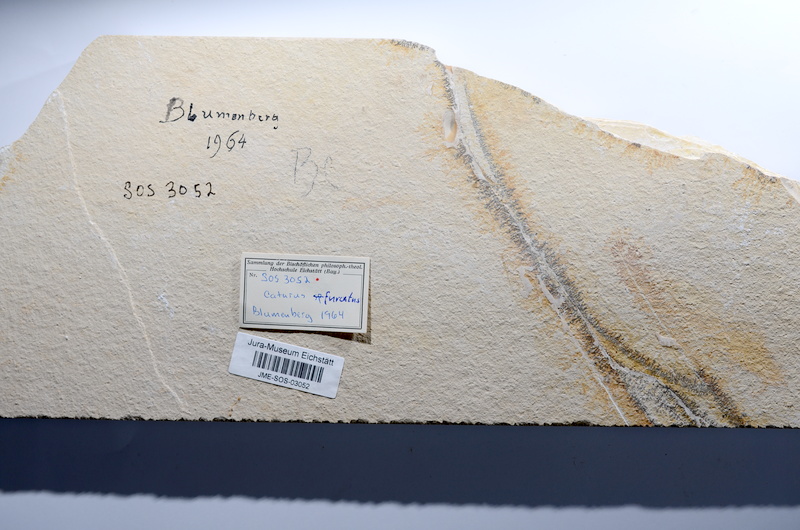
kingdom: Animalia
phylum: Chordata
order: Amiiformes
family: Caturidae
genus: Caturus
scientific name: Caturus furcatus
